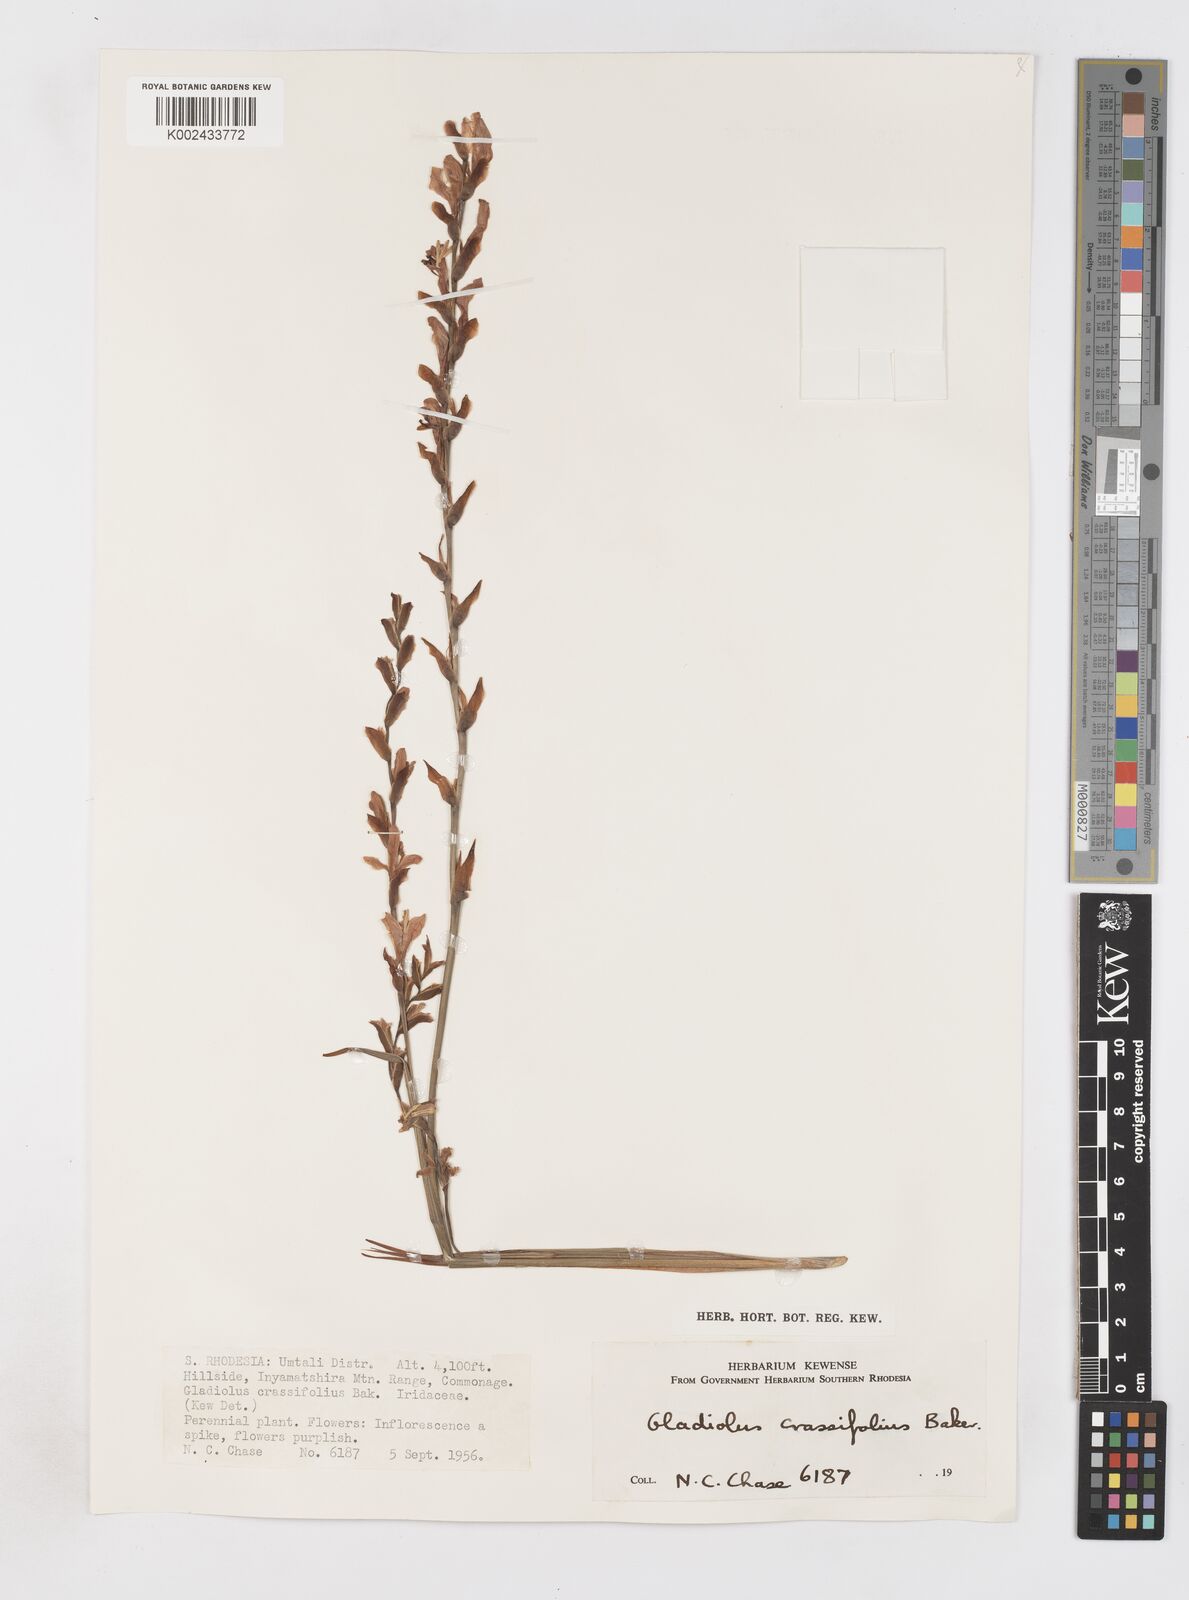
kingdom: Plantae
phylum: Tracheophyta
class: Liliopsida
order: Asparagales
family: Iridaceae
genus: Gladiolus
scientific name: Gladiolus crassifolius
